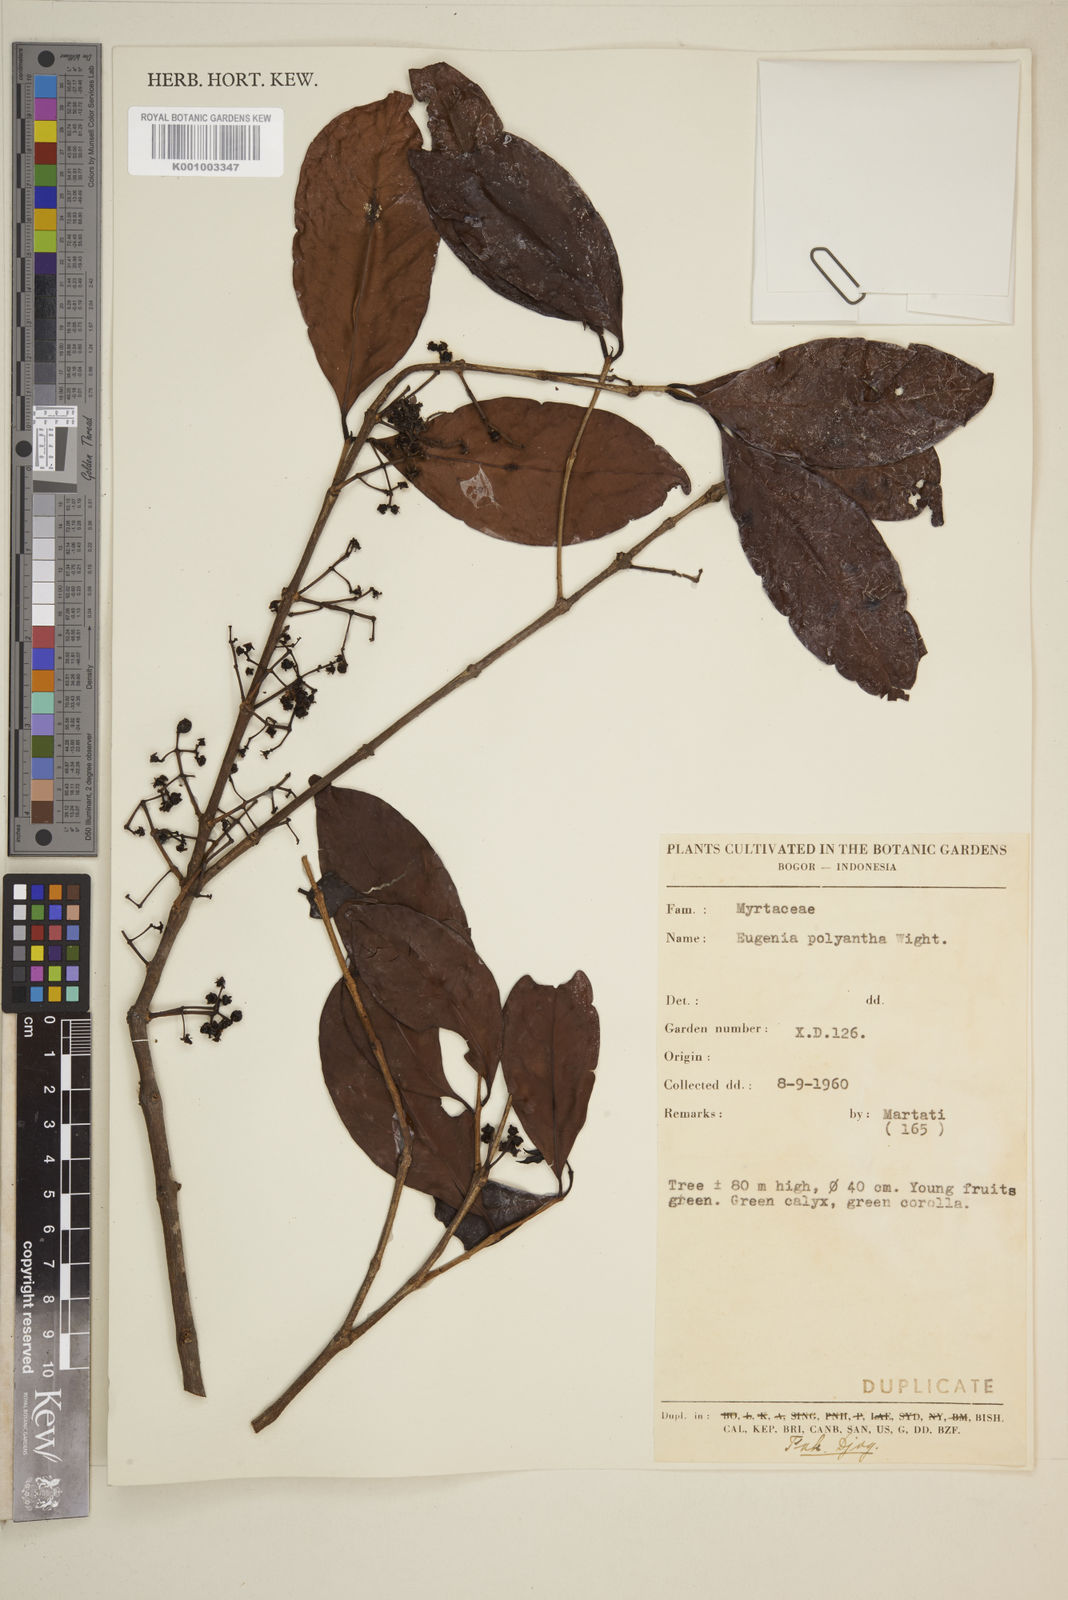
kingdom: Plantae
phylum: Tracheophyta
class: Magnoliopsida
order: Myrtales
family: Myrtaceae
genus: Eugenia
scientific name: Eugenia
